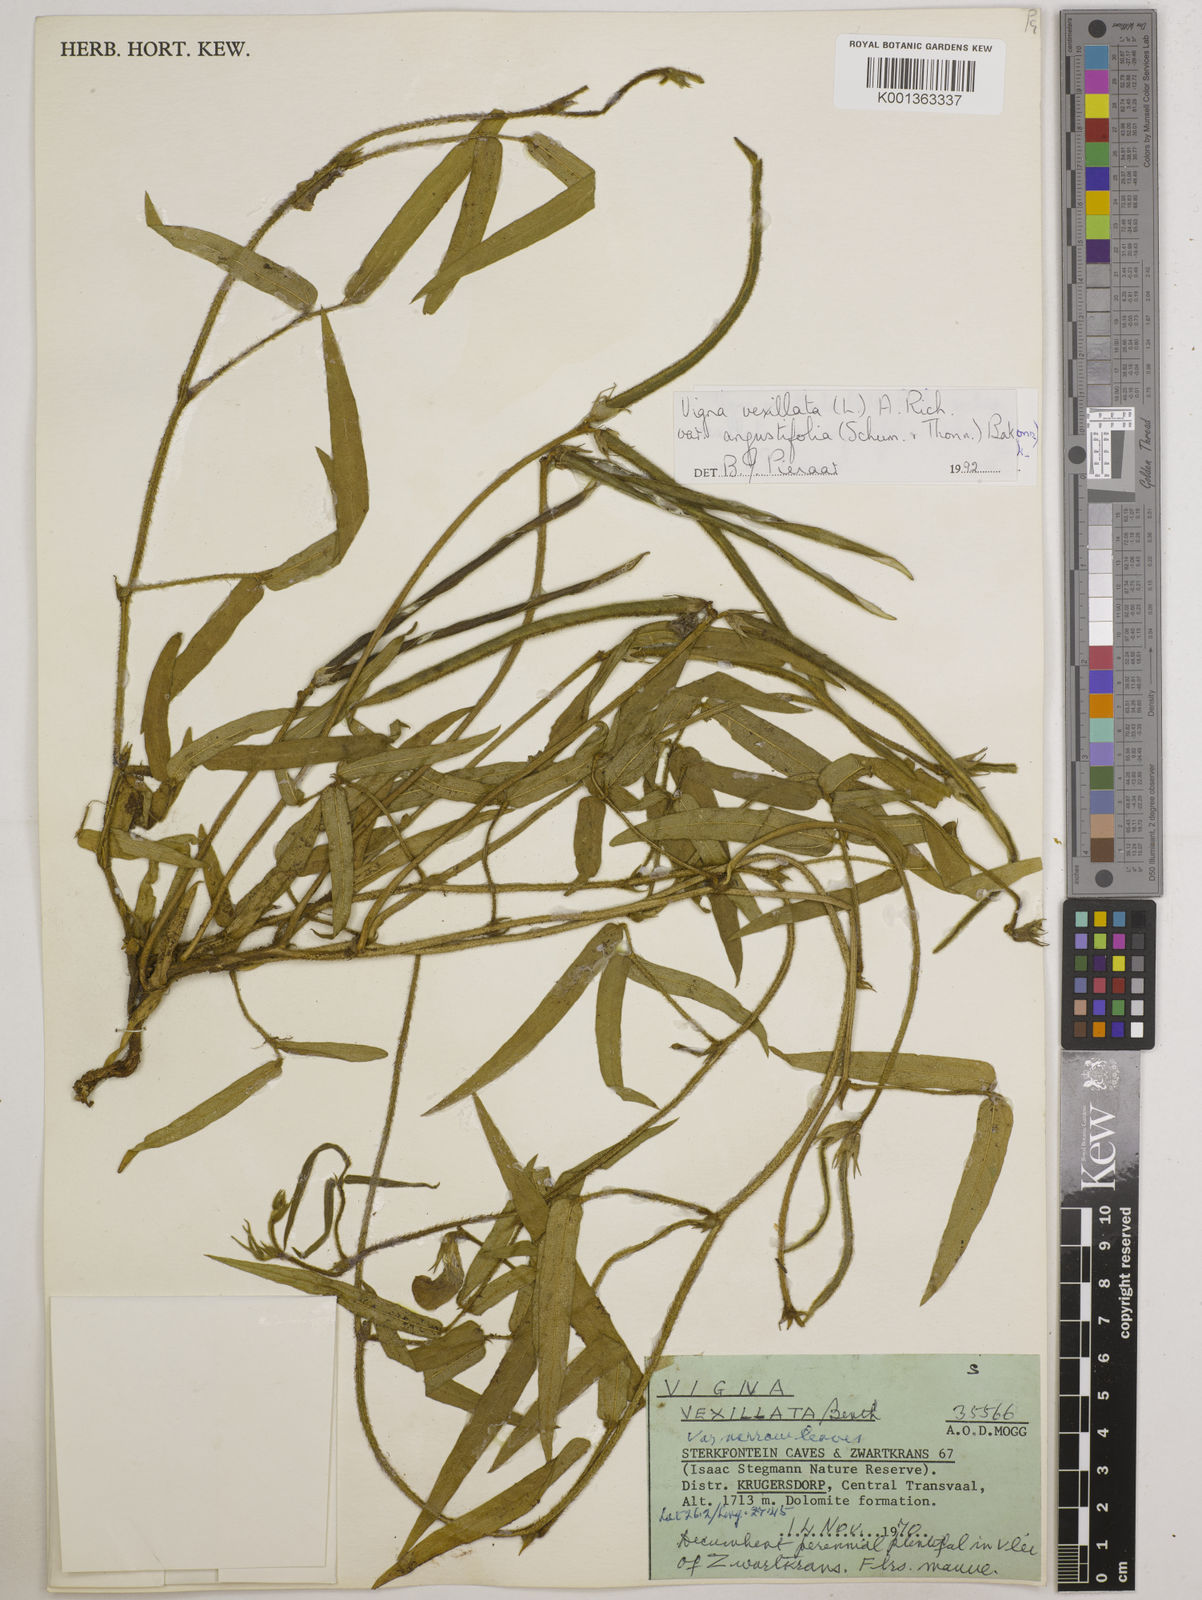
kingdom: Plantae
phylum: Tracheophyta
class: Magnoliopsida
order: Fabales
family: Fabaceae
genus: Vigna
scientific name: Vigna
